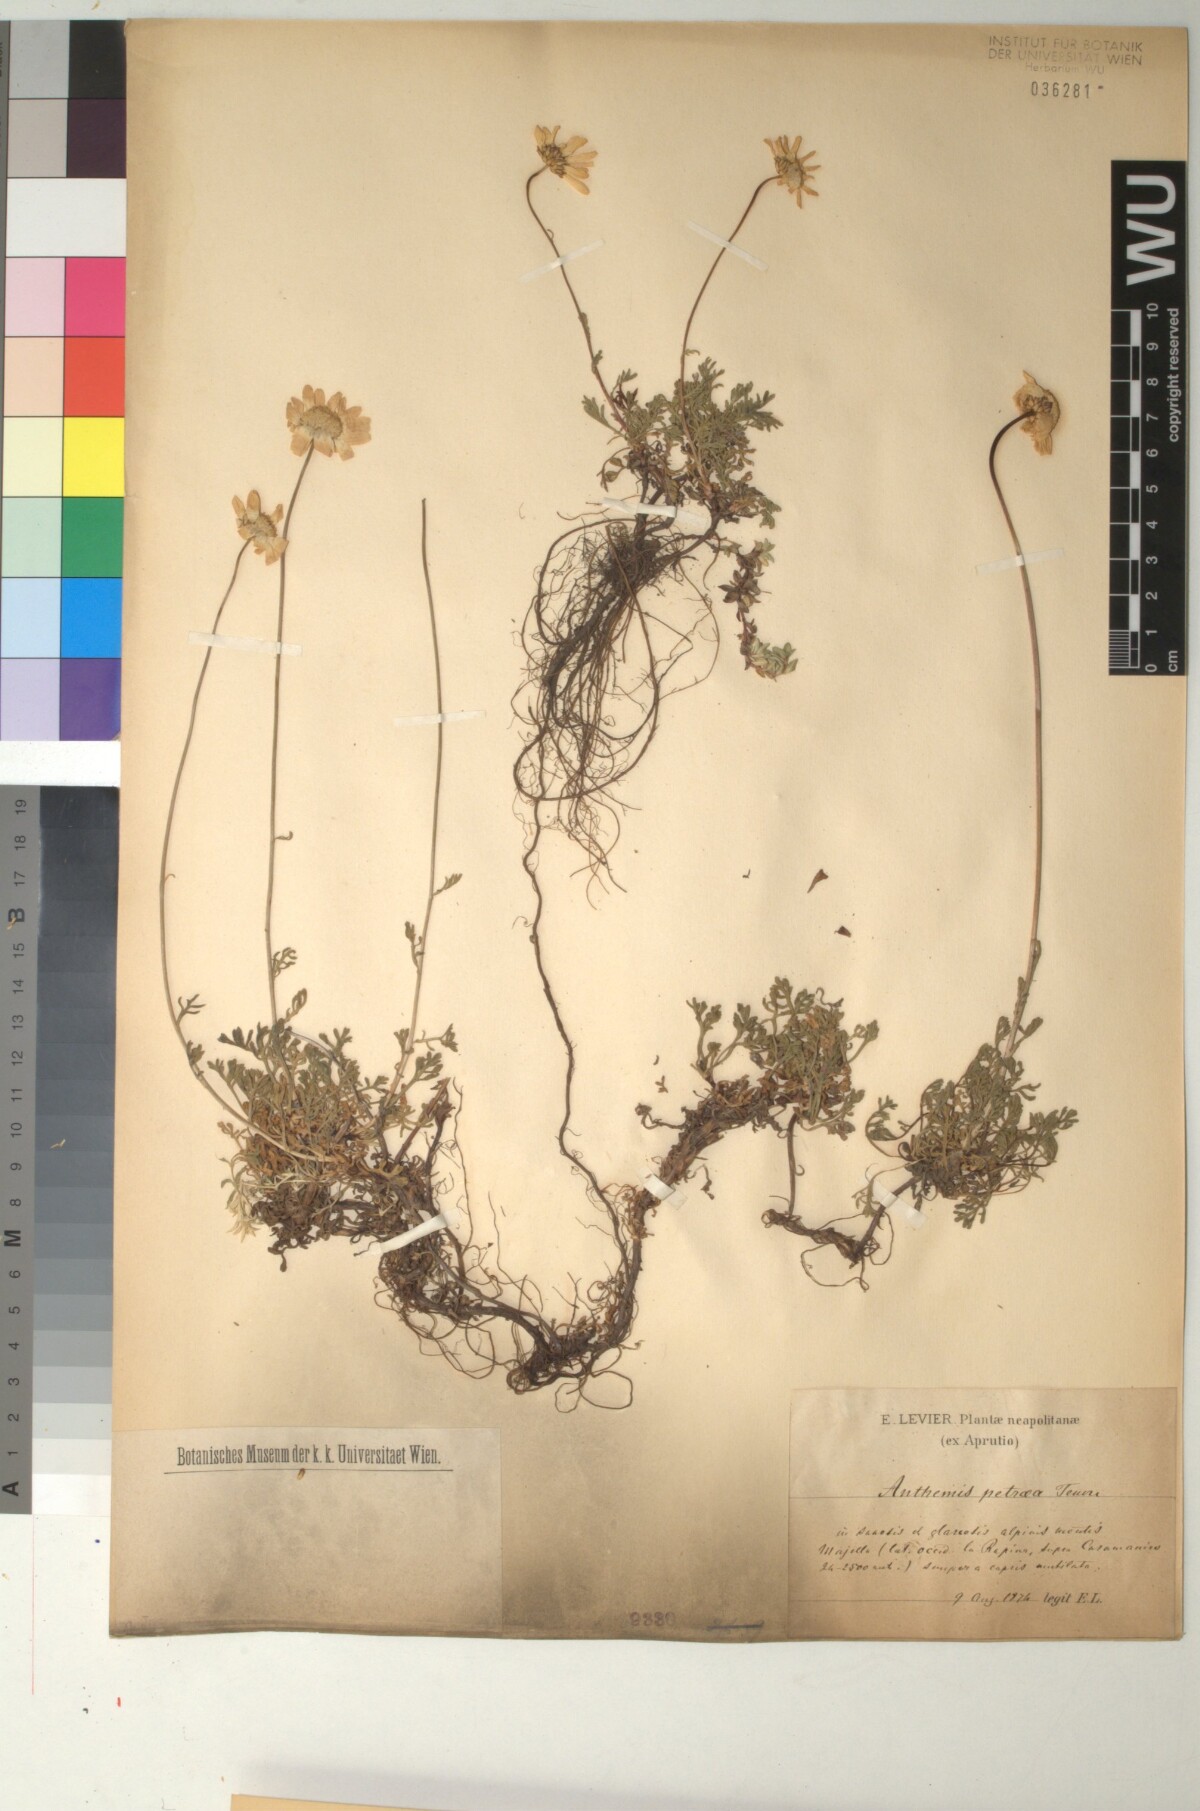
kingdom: Plantae
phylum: Tracheophyta
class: Magnoliopsida
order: Asterales
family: Asteraceae
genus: Anthemis
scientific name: Anthemis cretica
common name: Mountain dog-daisy
